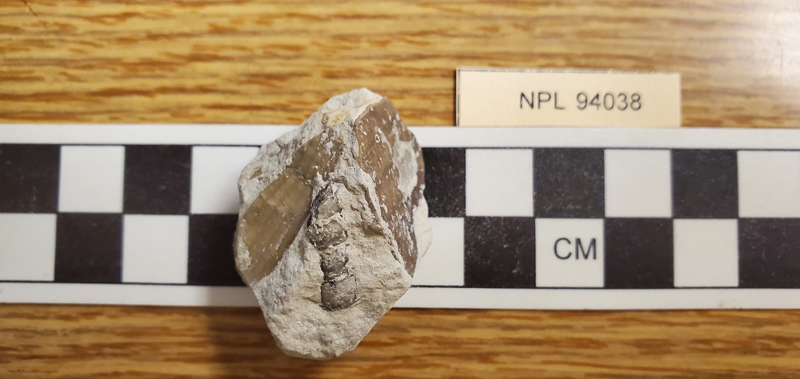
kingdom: Animalia
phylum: Mollusca
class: Gastropoda
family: Nerineidae
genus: Nerinea
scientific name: Nerinea
